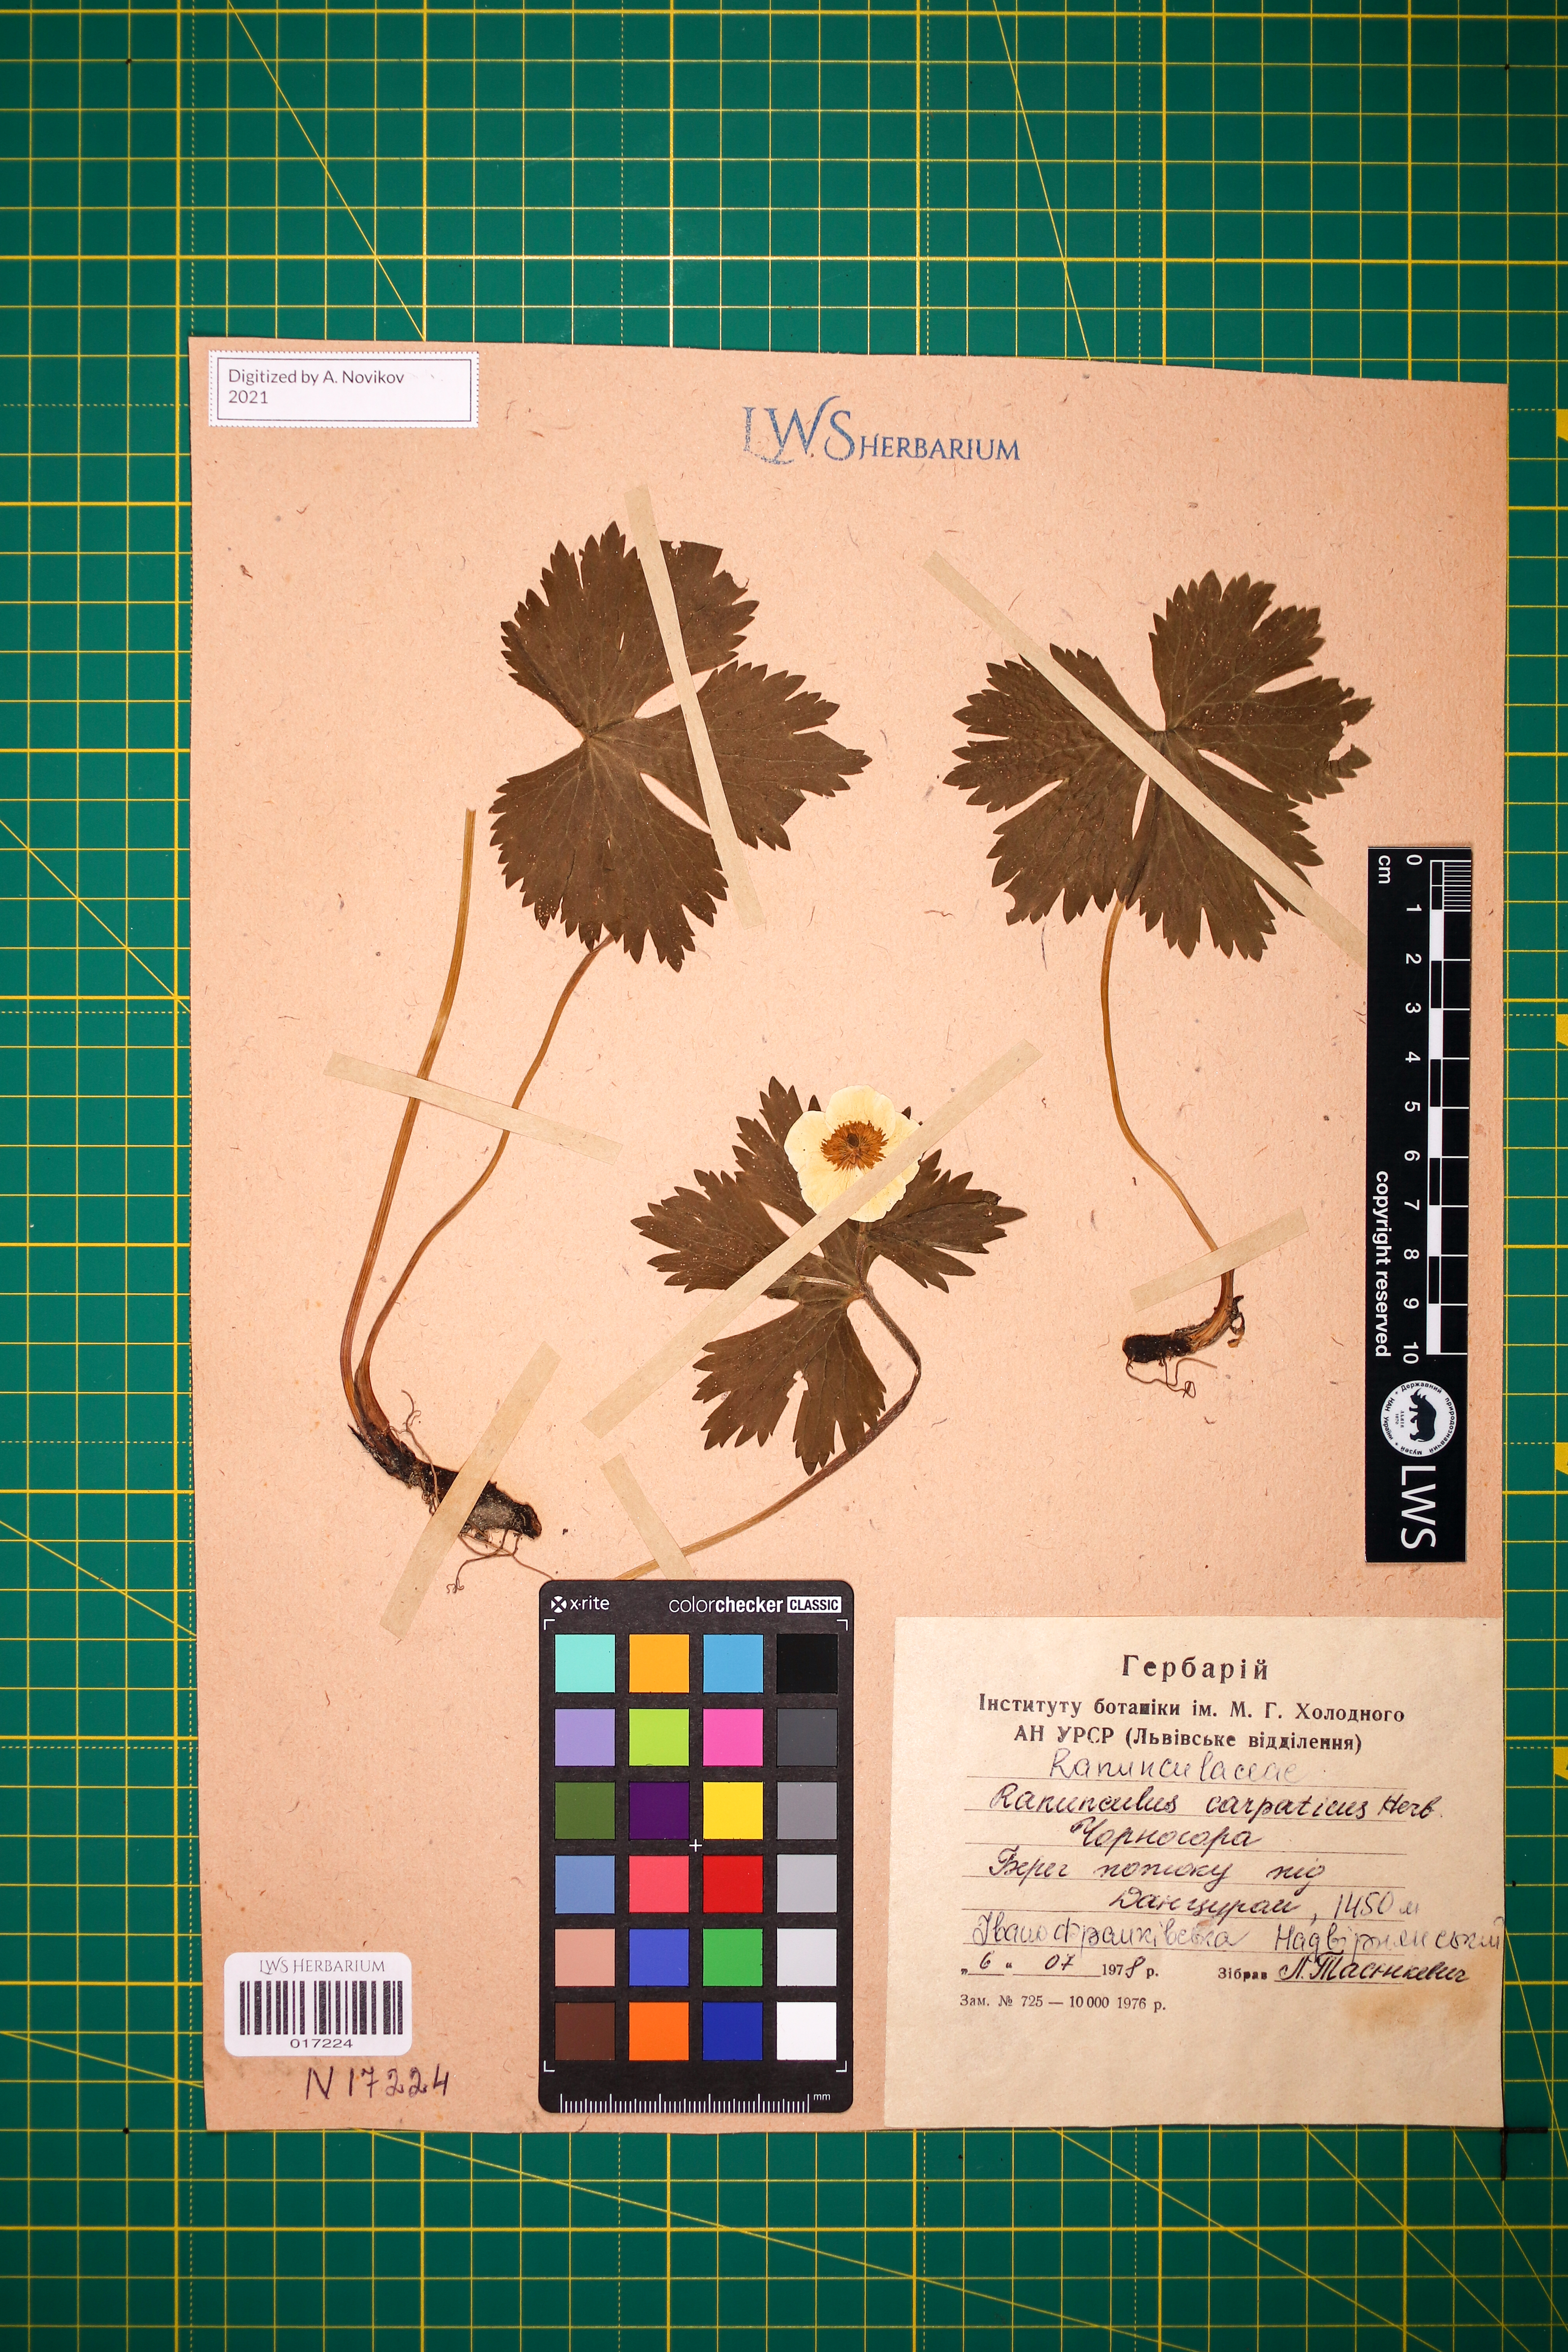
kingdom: Plantae
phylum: Tracheophyta
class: Magnoliopsida
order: Ranunculales
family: Ranunculaceae
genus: Ranunculus
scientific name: Ranunculus carpaticus
